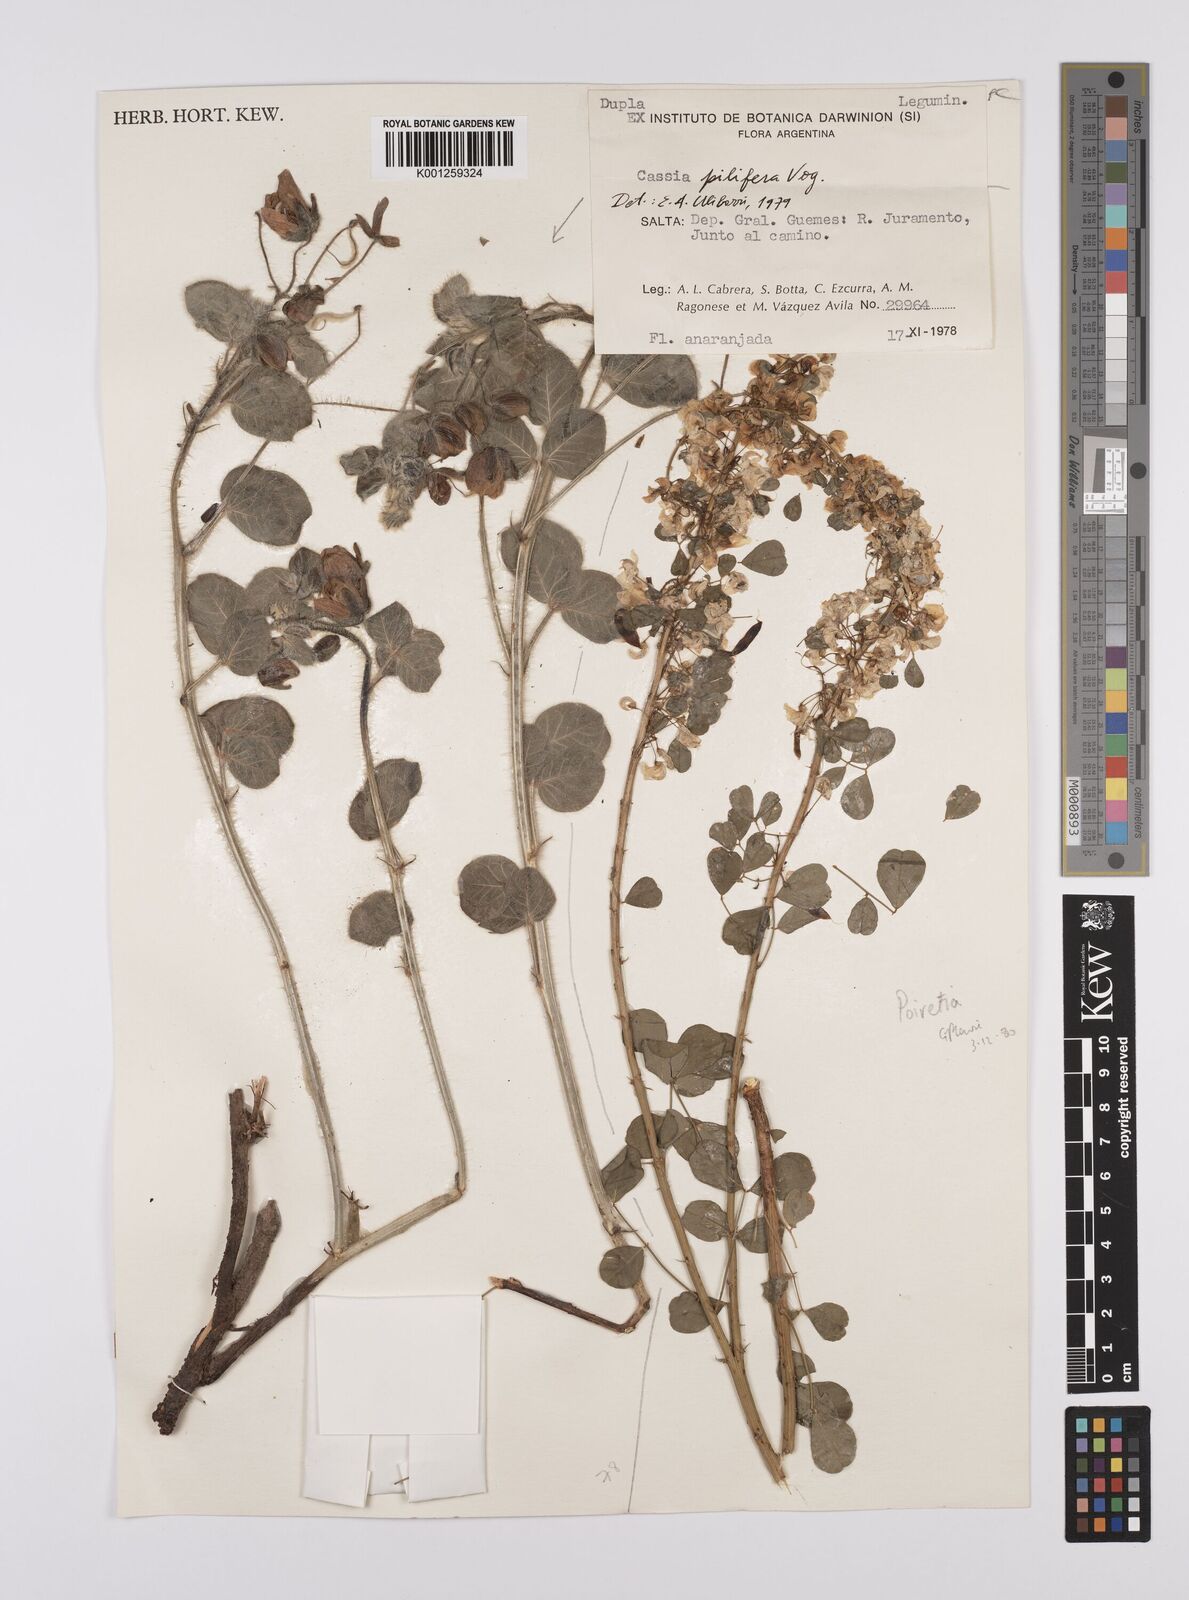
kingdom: Plantae
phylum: Tracheophyta
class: Magnoliopsida
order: Fabales
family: Fabaceae
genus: Senna
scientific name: Senna pilifera
